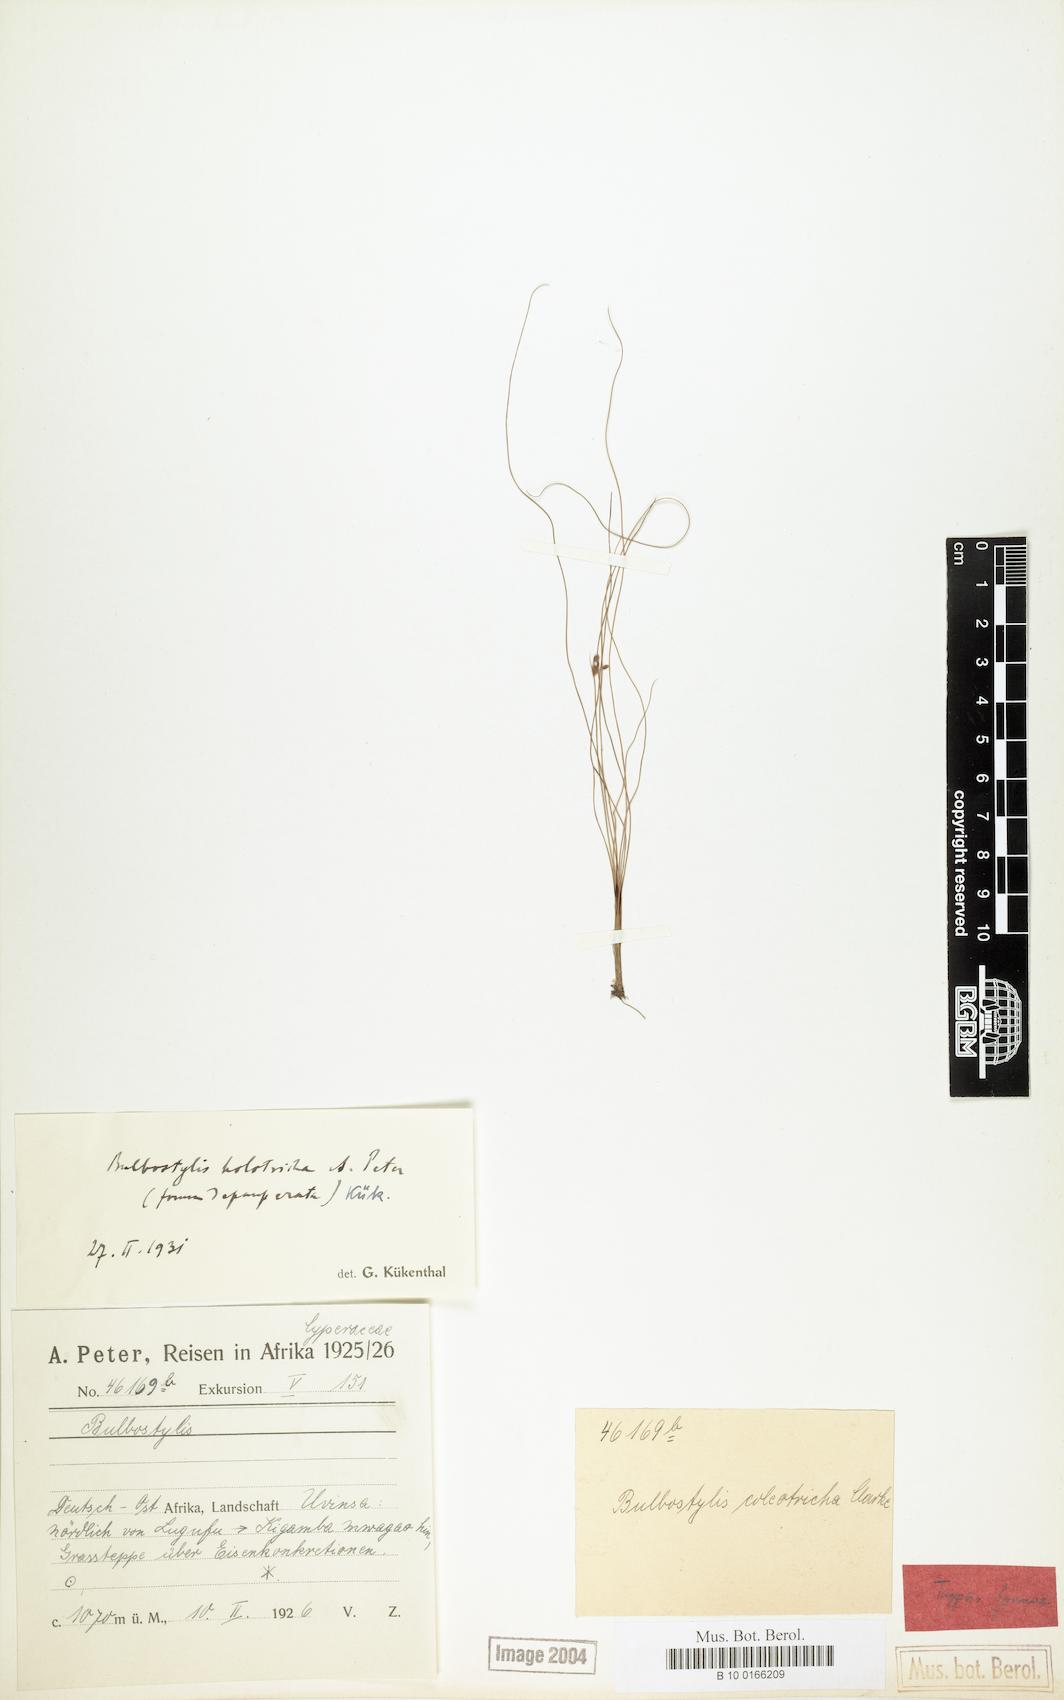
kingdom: Plantae
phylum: Tracheophyta
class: Liliopsida
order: Poales
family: Cyperaceae
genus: Bulbostylis
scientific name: Bulbostylis congolensis
